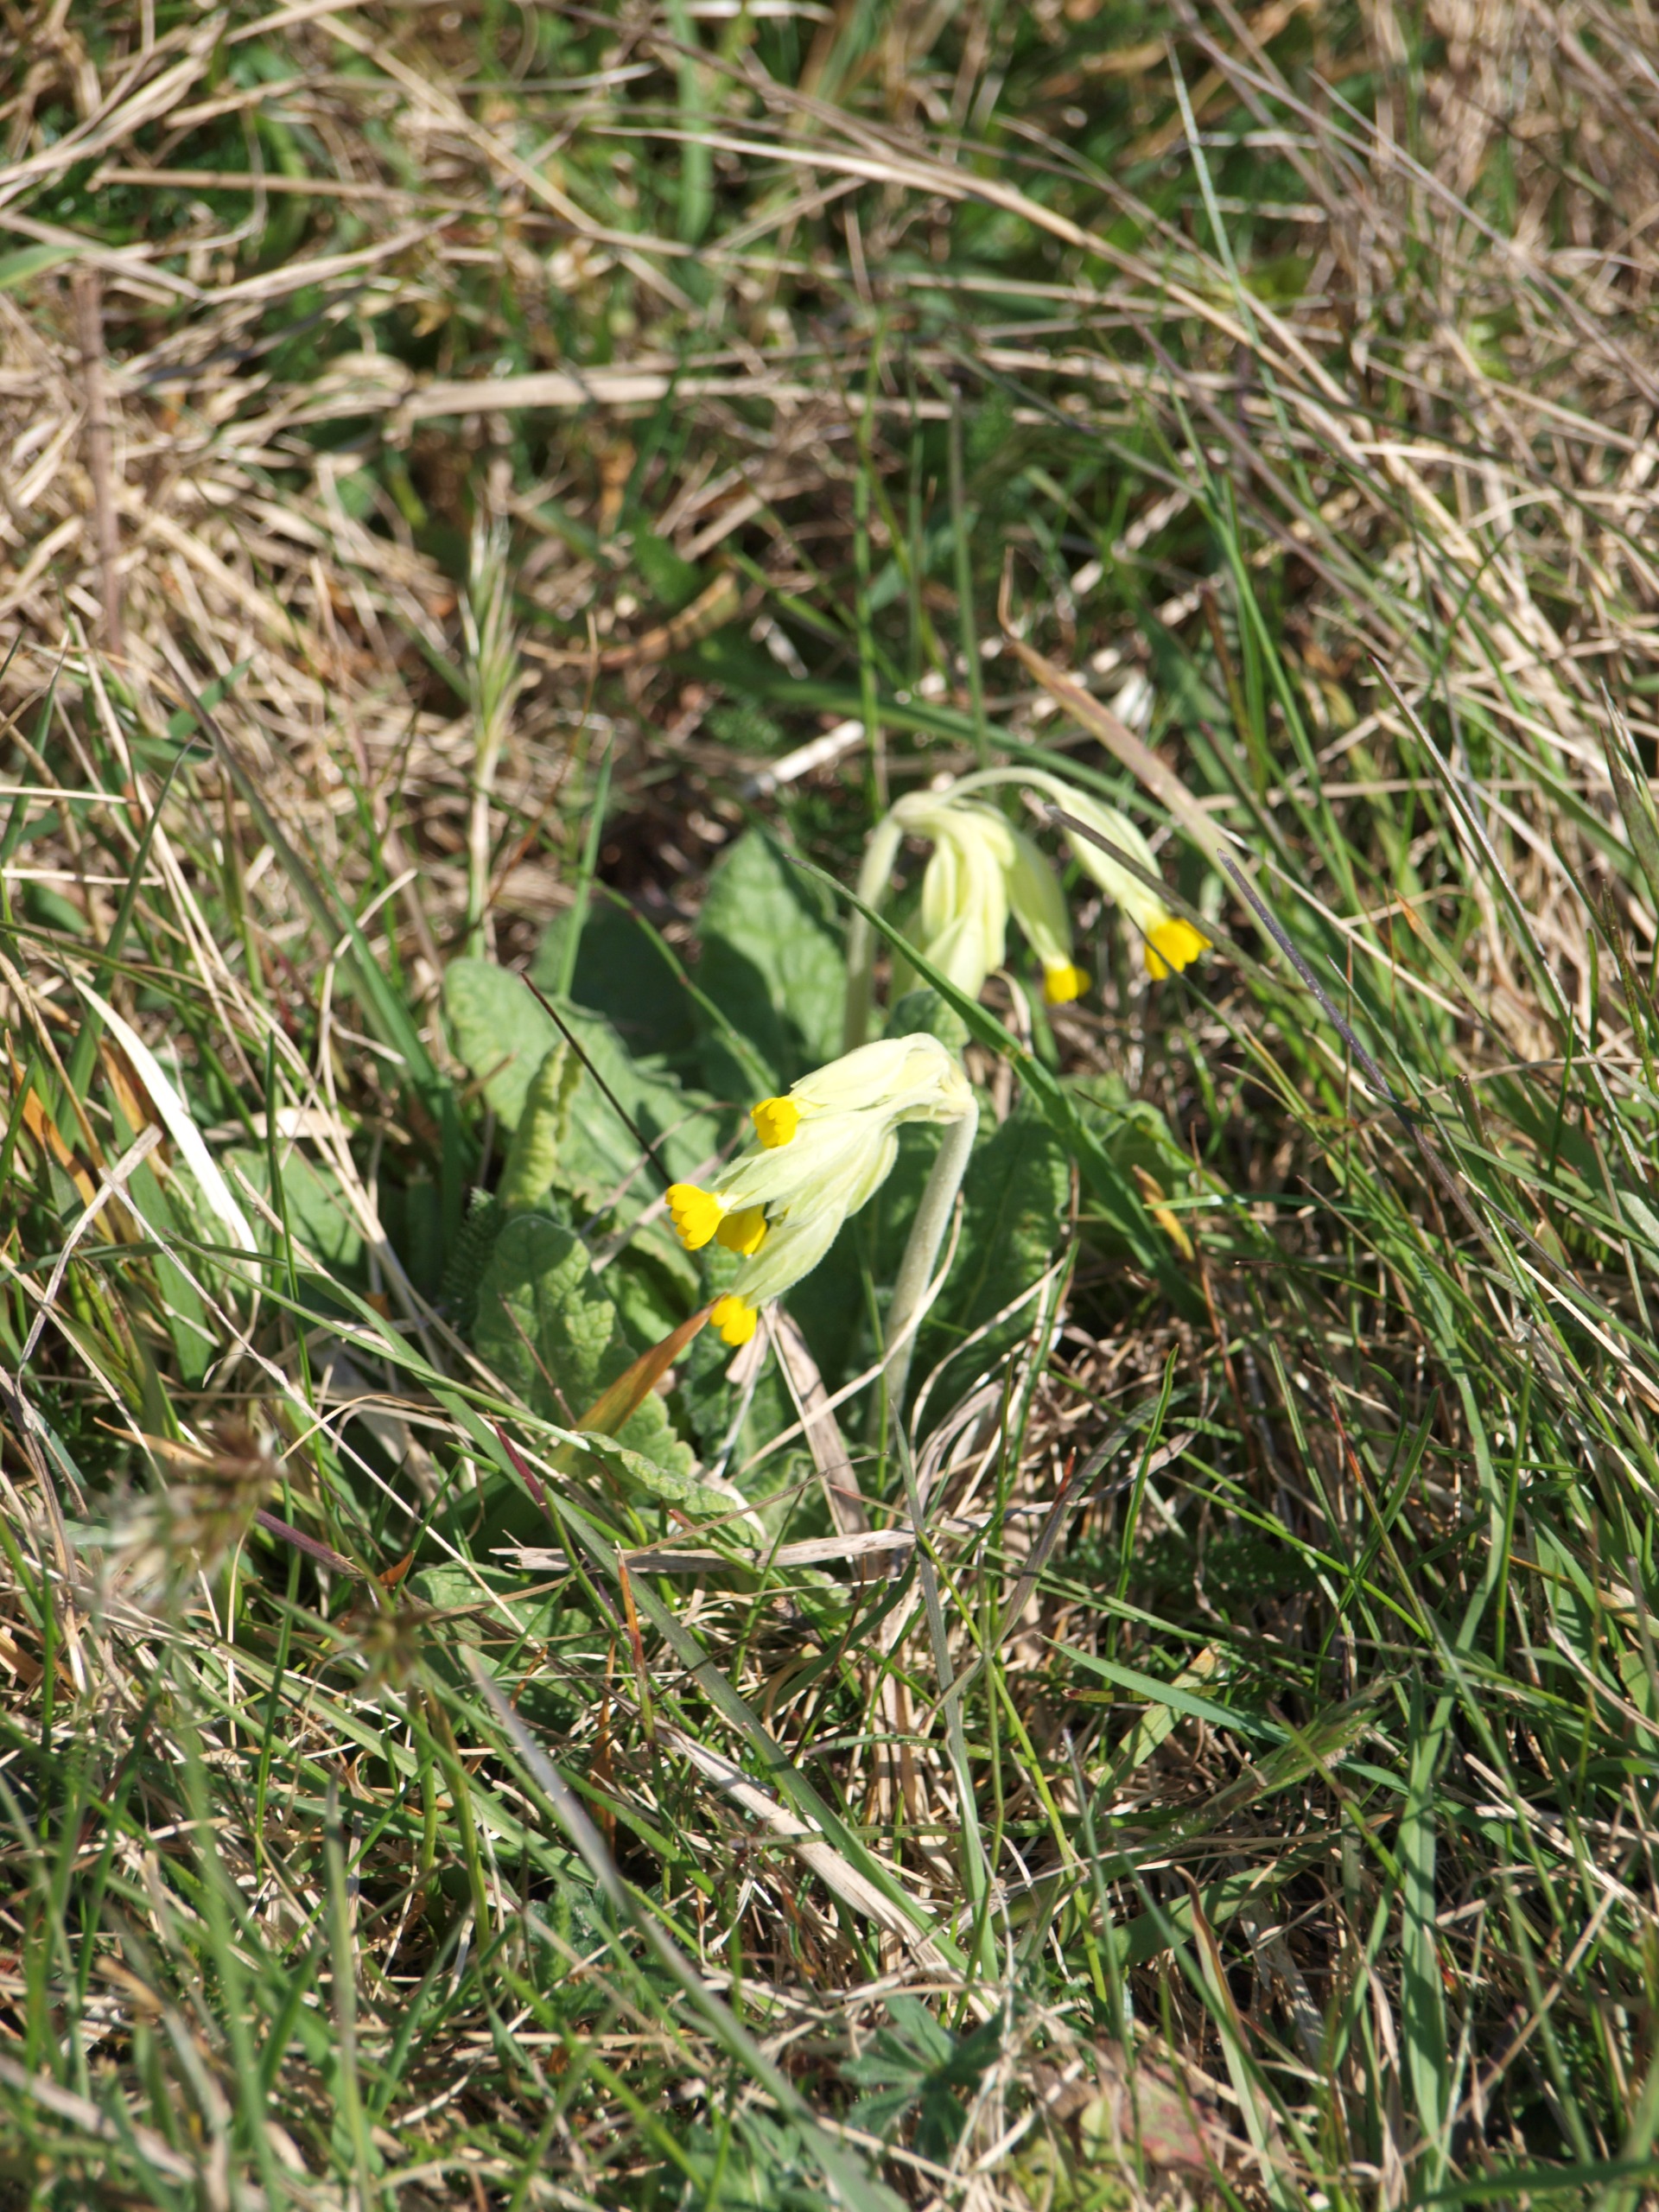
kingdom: Plantae
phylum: Tracheophyta
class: Magnoliopsida
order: Ericales
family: Primulaceae
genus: Primula
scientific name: Primula veris
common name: Hulkravet kodriver
